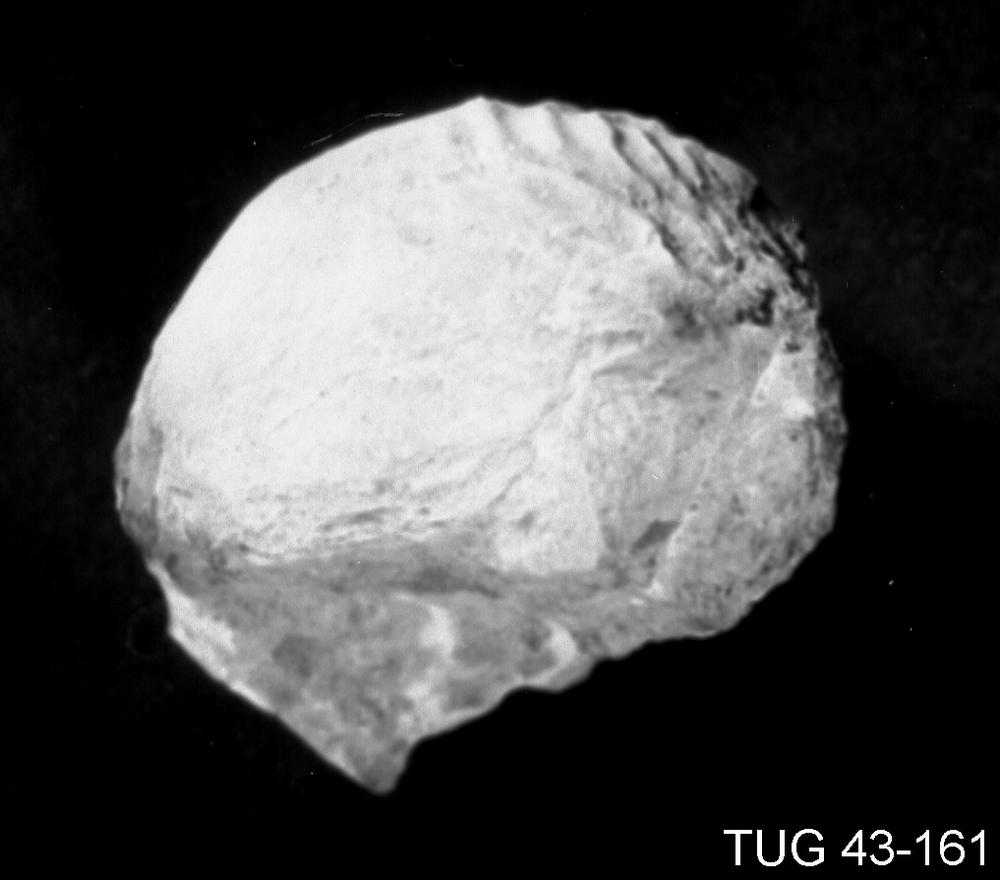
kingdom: Animalia
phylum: Brachiopoda
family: Strophomenidae
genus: Leptaena
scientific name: Leptaena cryptoides
